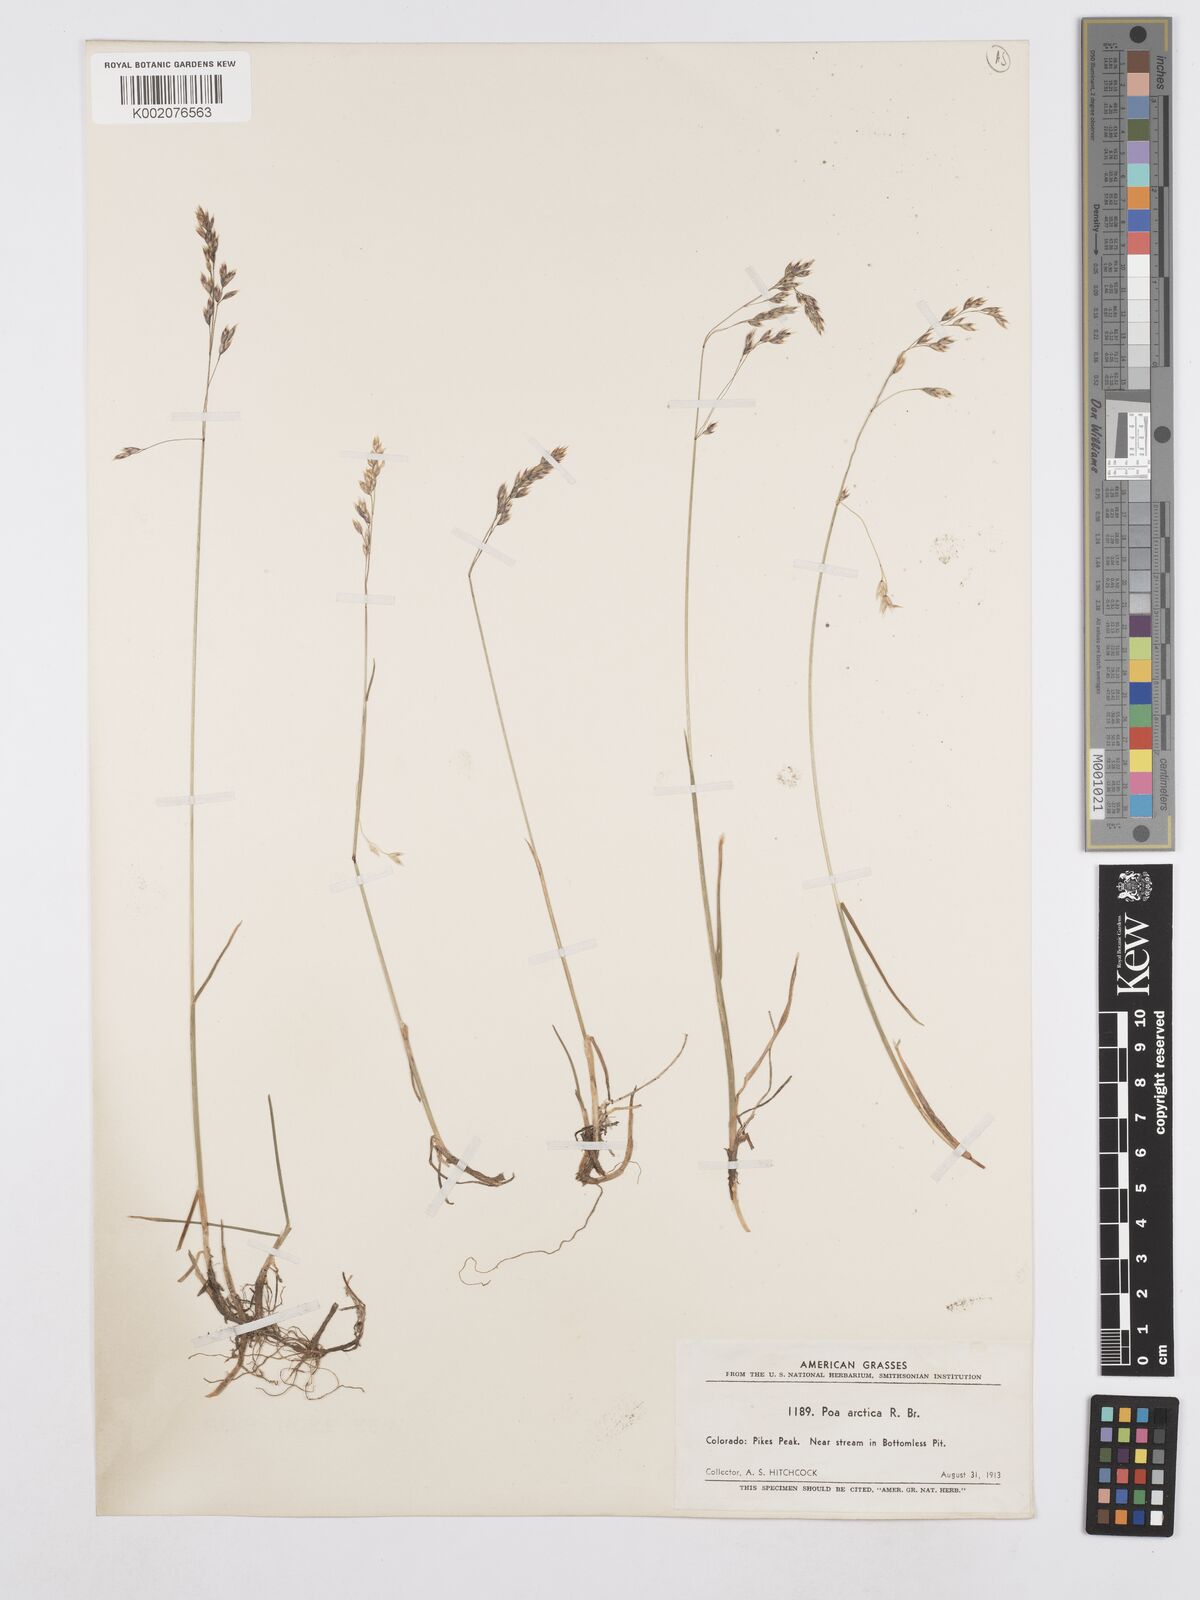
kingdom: Plantae
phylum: Tracheophyta
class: Liliopsida
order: Poales
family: Poaceae
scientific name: Poaceae
